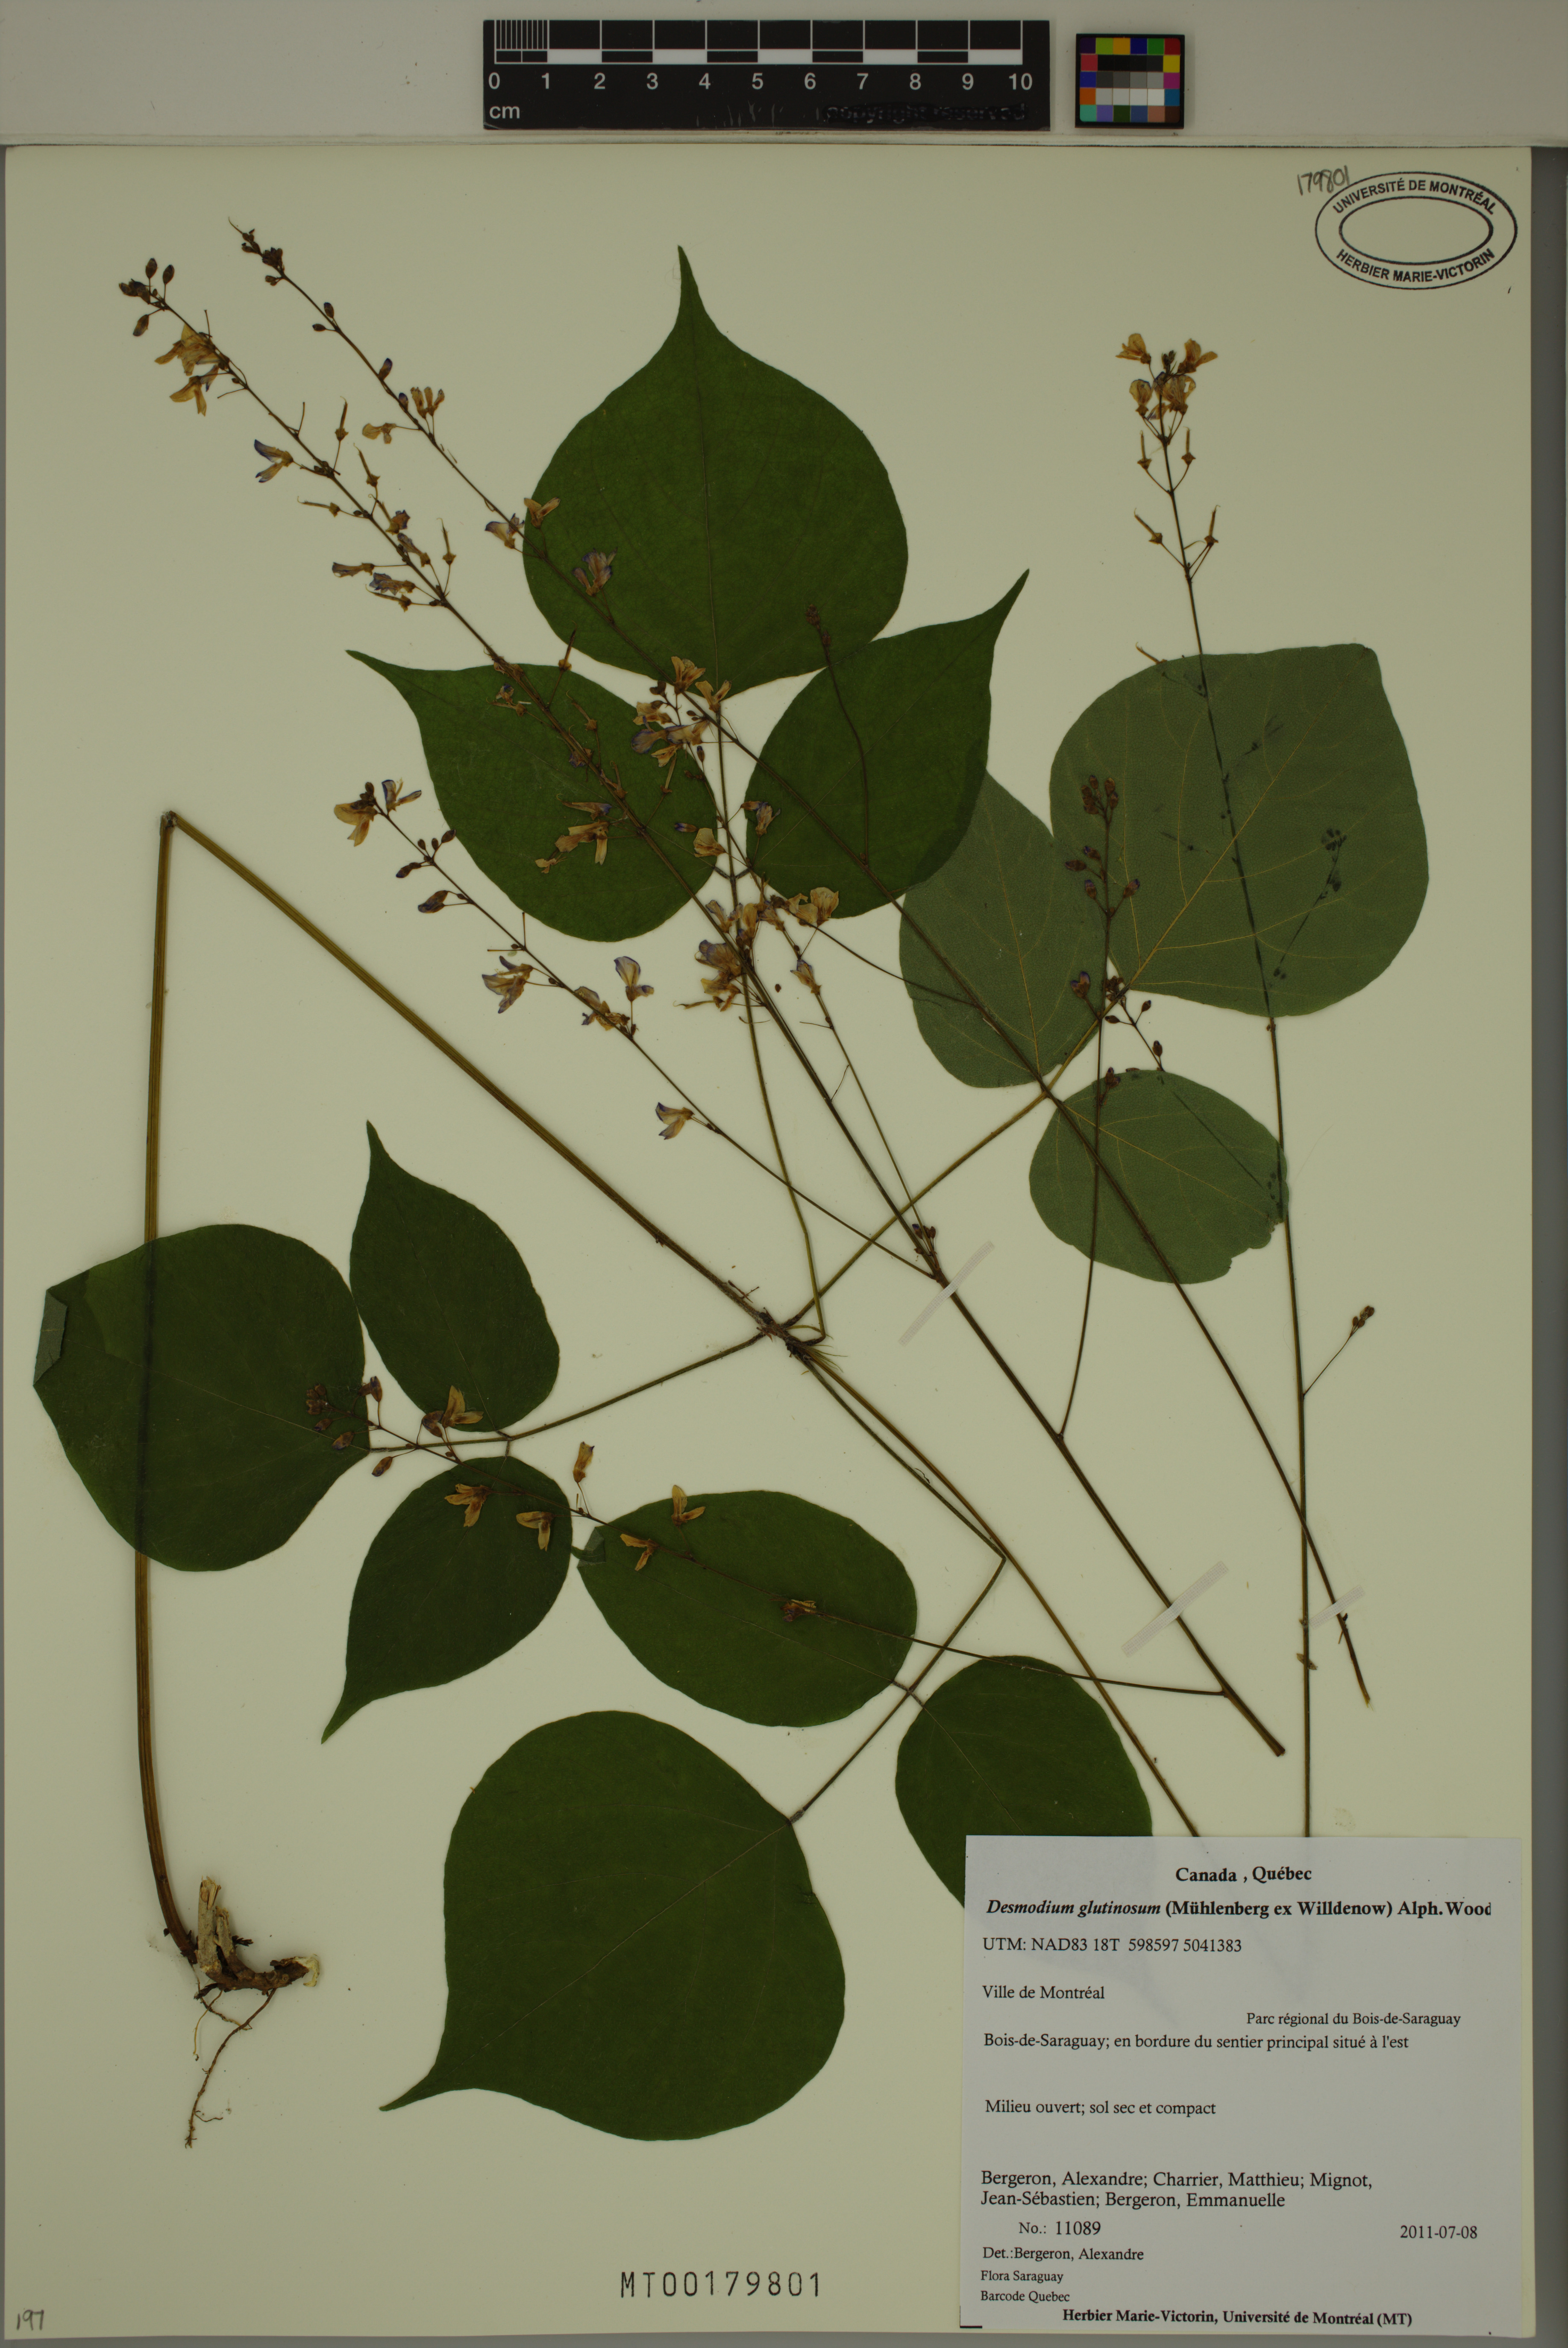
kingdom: Plantae
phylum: Tracheophyta
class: Magnoliopsida
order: Fabales
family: Fabaceae
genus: Hylodesmum
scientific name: Hylodesmum glutinosum
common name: Clustered-leaved tick-trefoil
